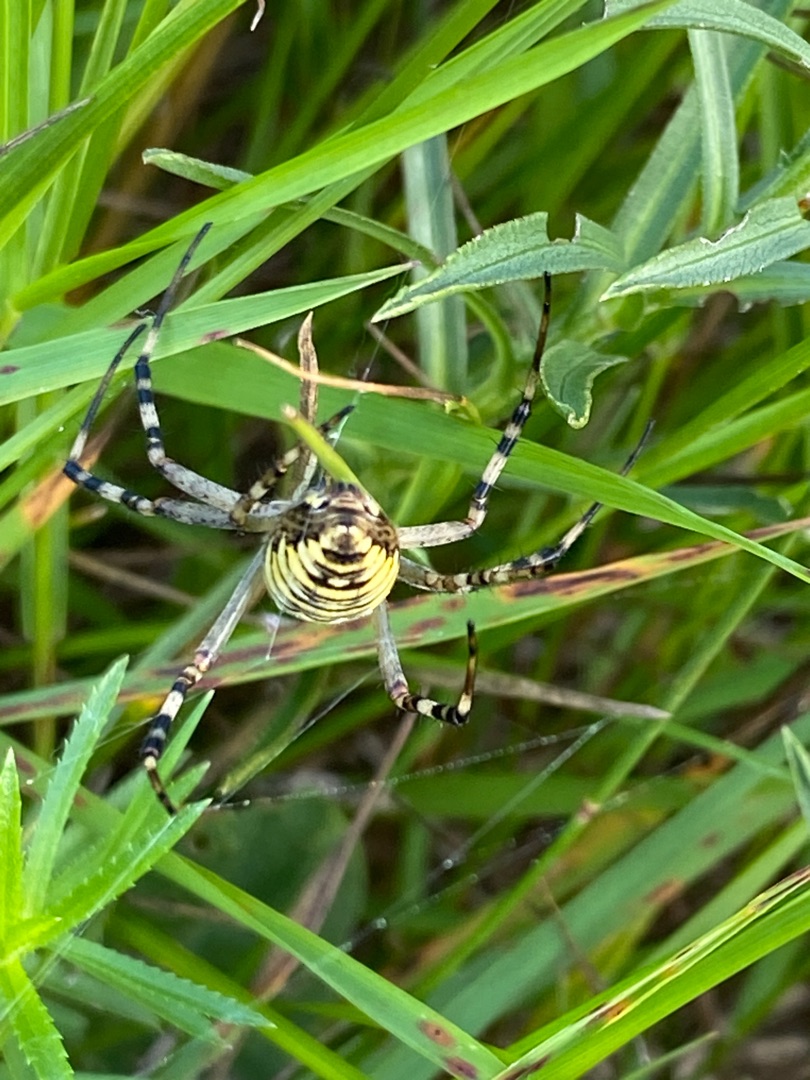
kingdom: Animalia
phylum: Arthropoda
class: Arachnida
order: Araneae
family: Araneidae
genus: Argiope
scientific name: Argiope bruennichi
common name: Hvepseedderkop
